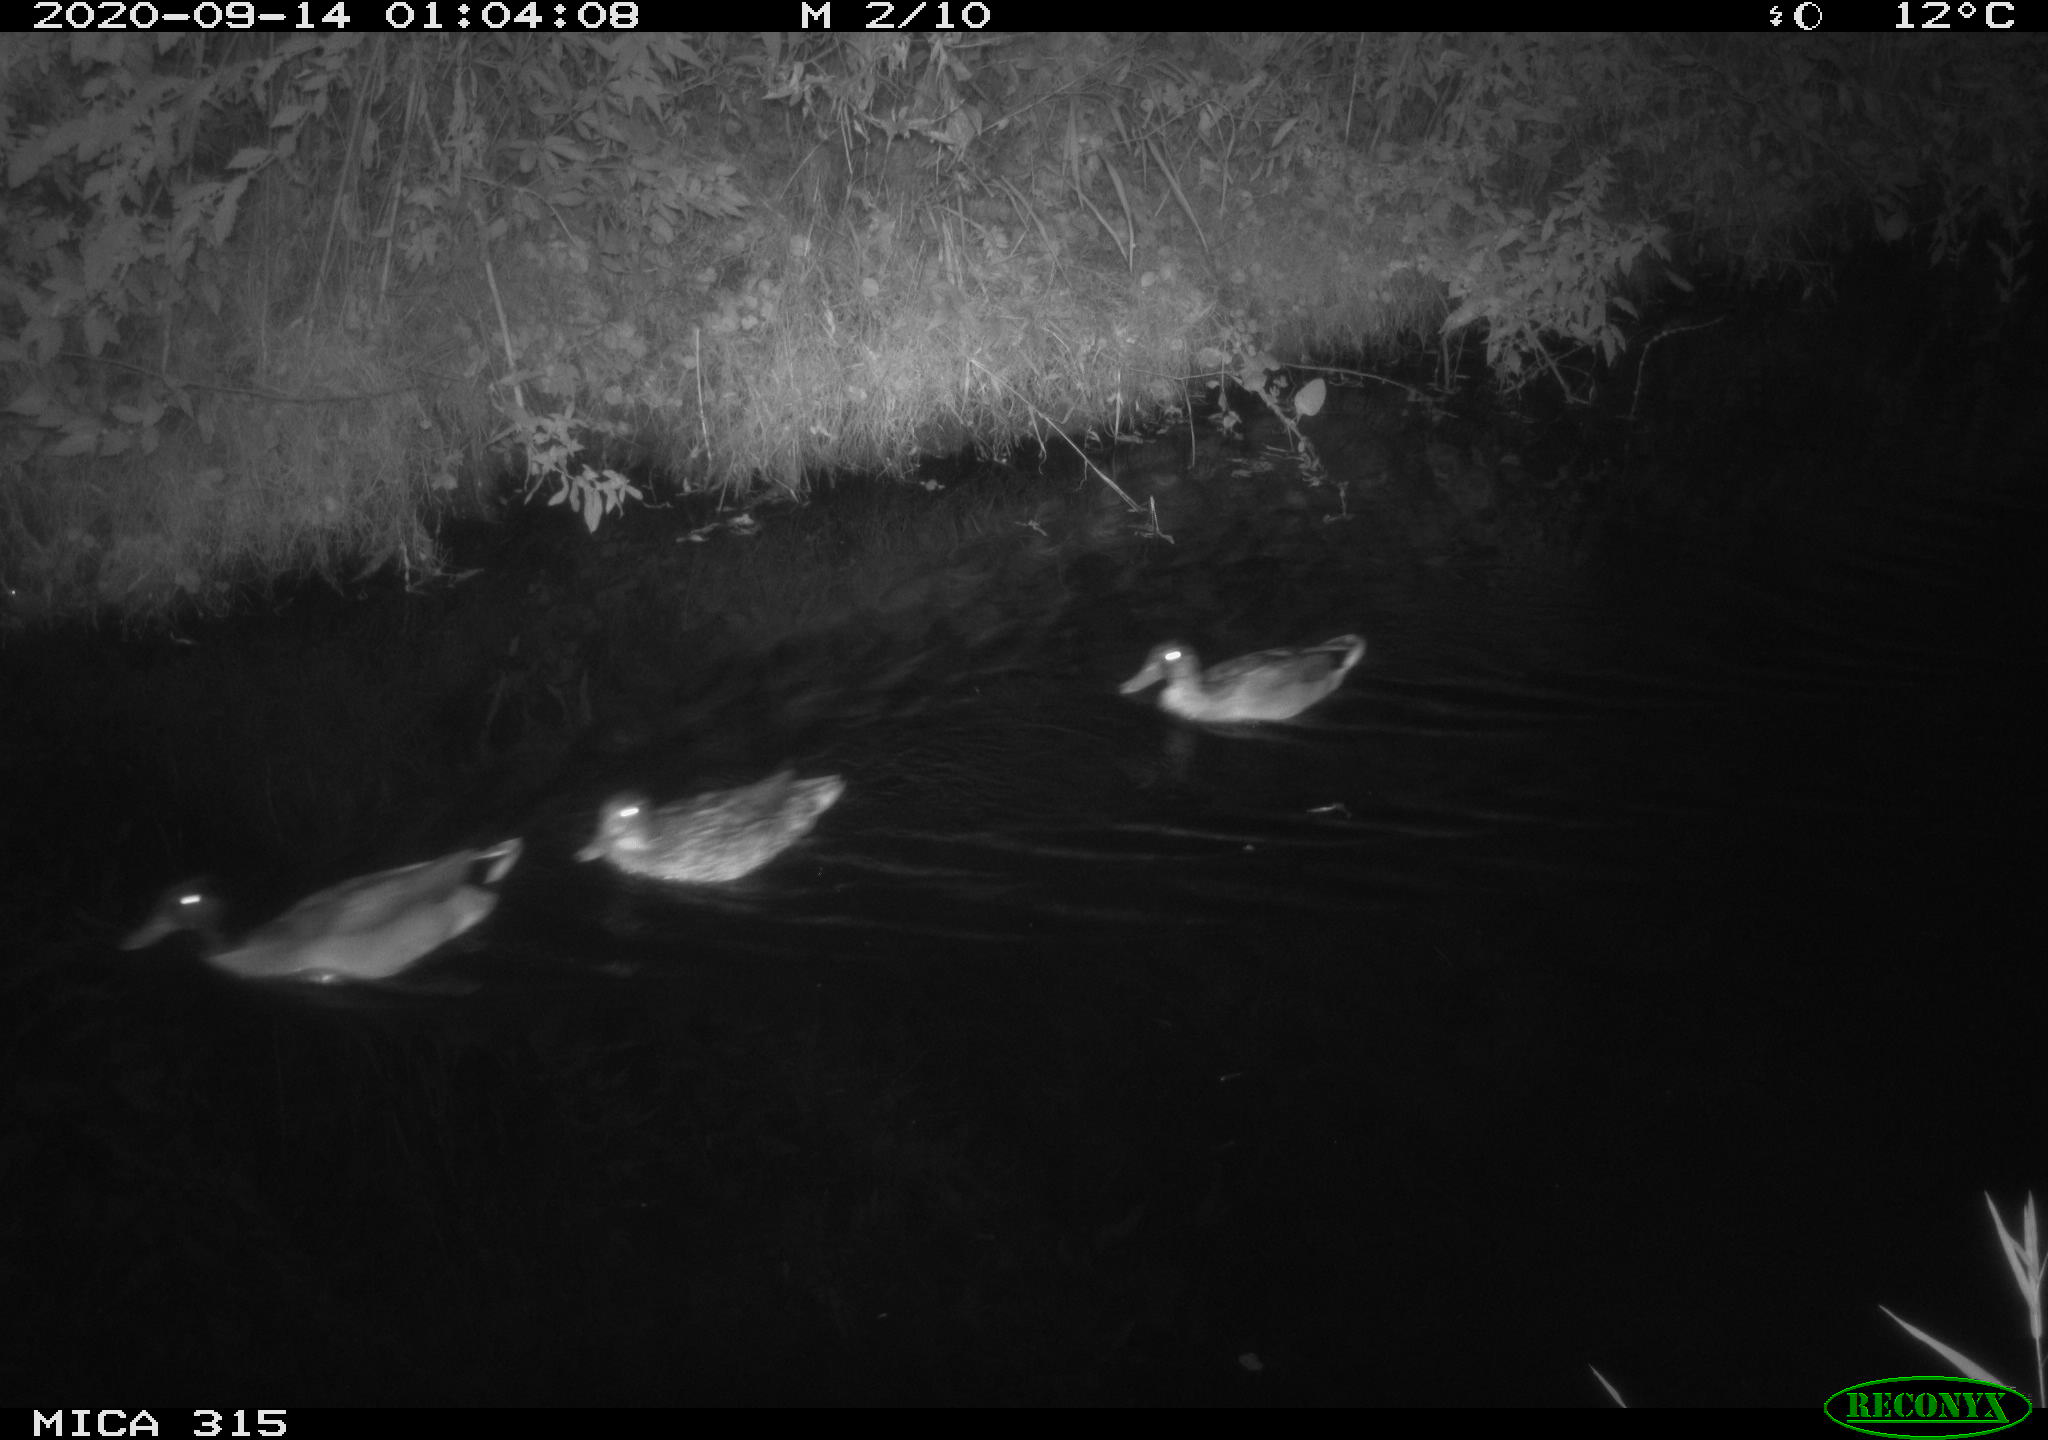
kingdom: Animalia
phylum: Chordata
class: Aves
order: Anseriformes
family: Anatidae
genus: Anas
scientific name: Anas platyrhynchos
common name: Mallard
